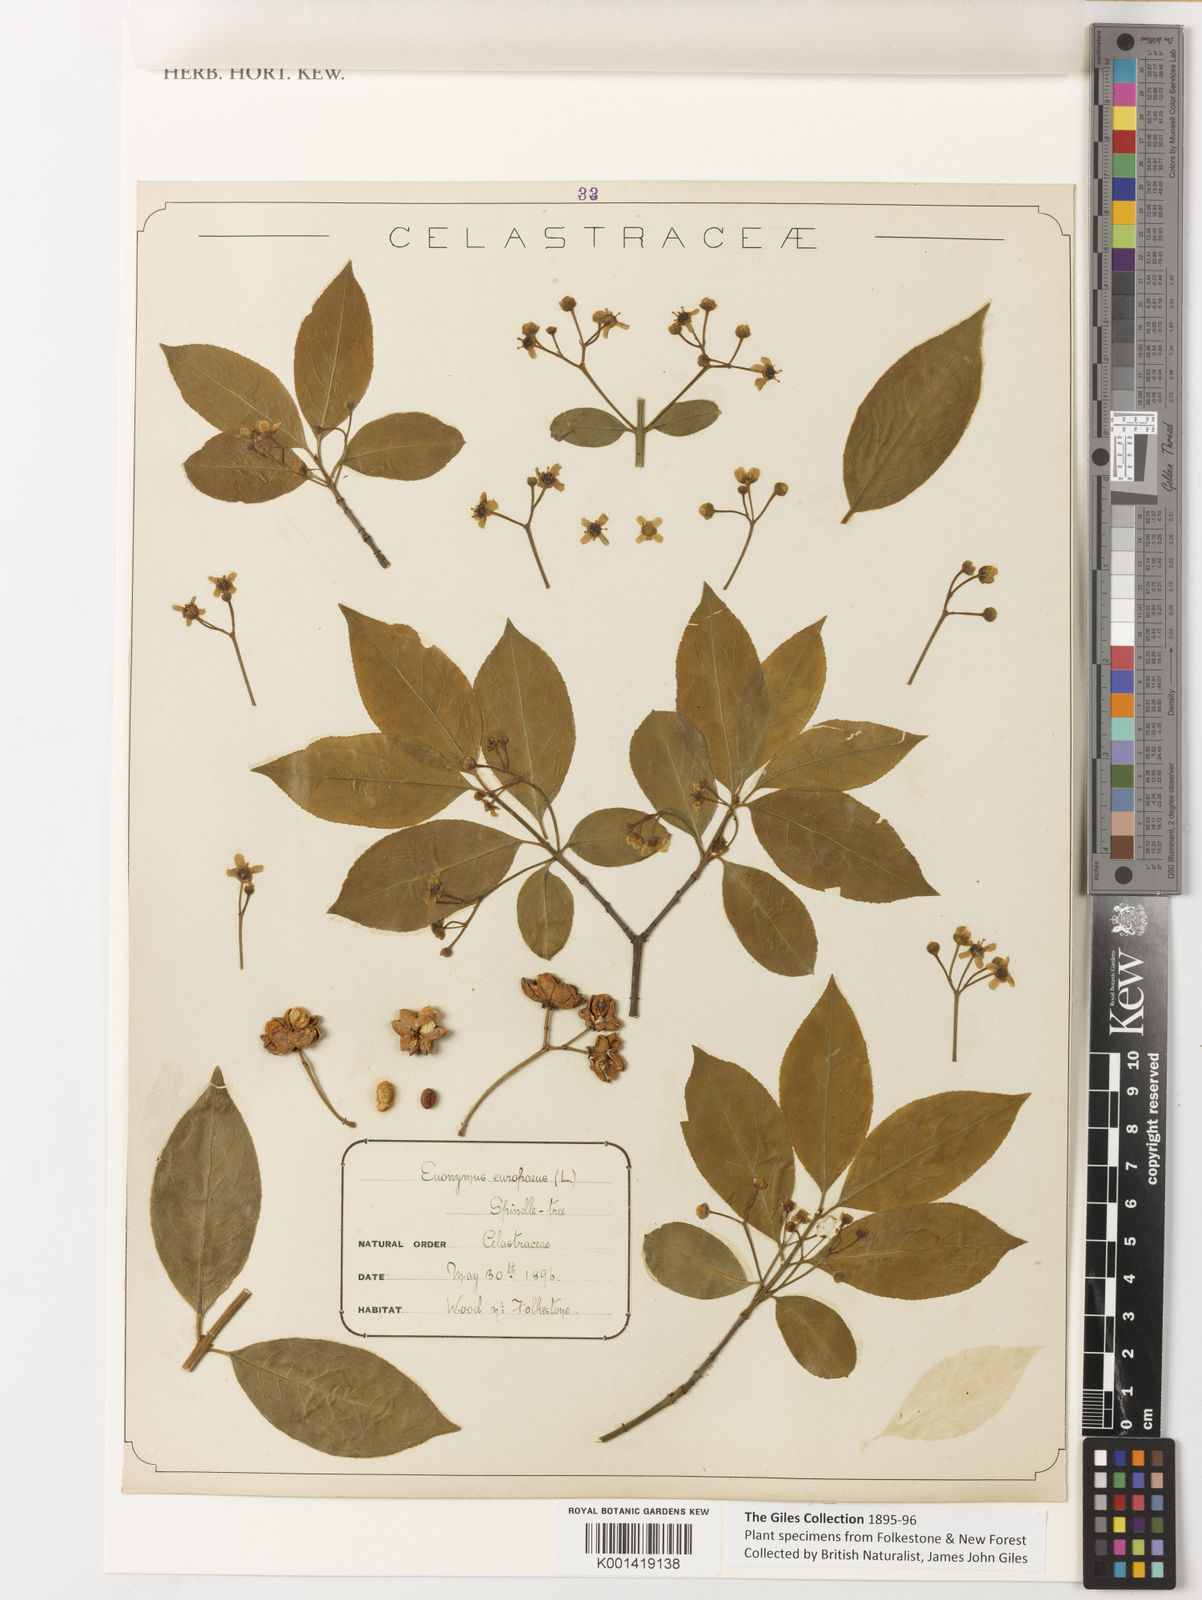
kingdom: Plantae
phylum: Tracheophyta
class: Magnoliopsida
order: Celastrales
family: Celastraceae
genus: Euonymus
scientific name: Euonymus europaeus
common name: Spindle
